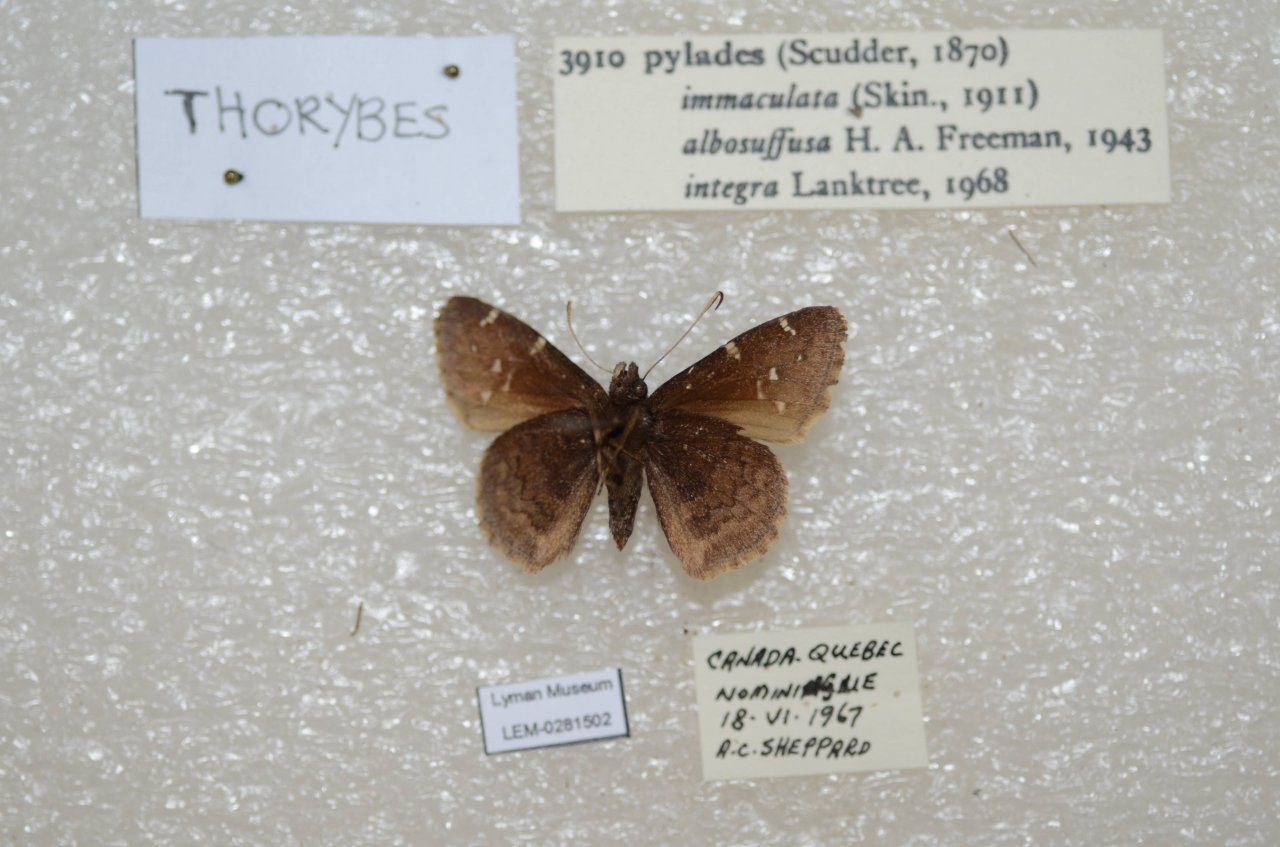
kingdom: Animalia
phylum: Arthropoda
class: Insecta
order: Lepidoptera
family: Hesperiidae
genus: Autochton
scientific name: Autochton
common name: Northern Cloudywing
